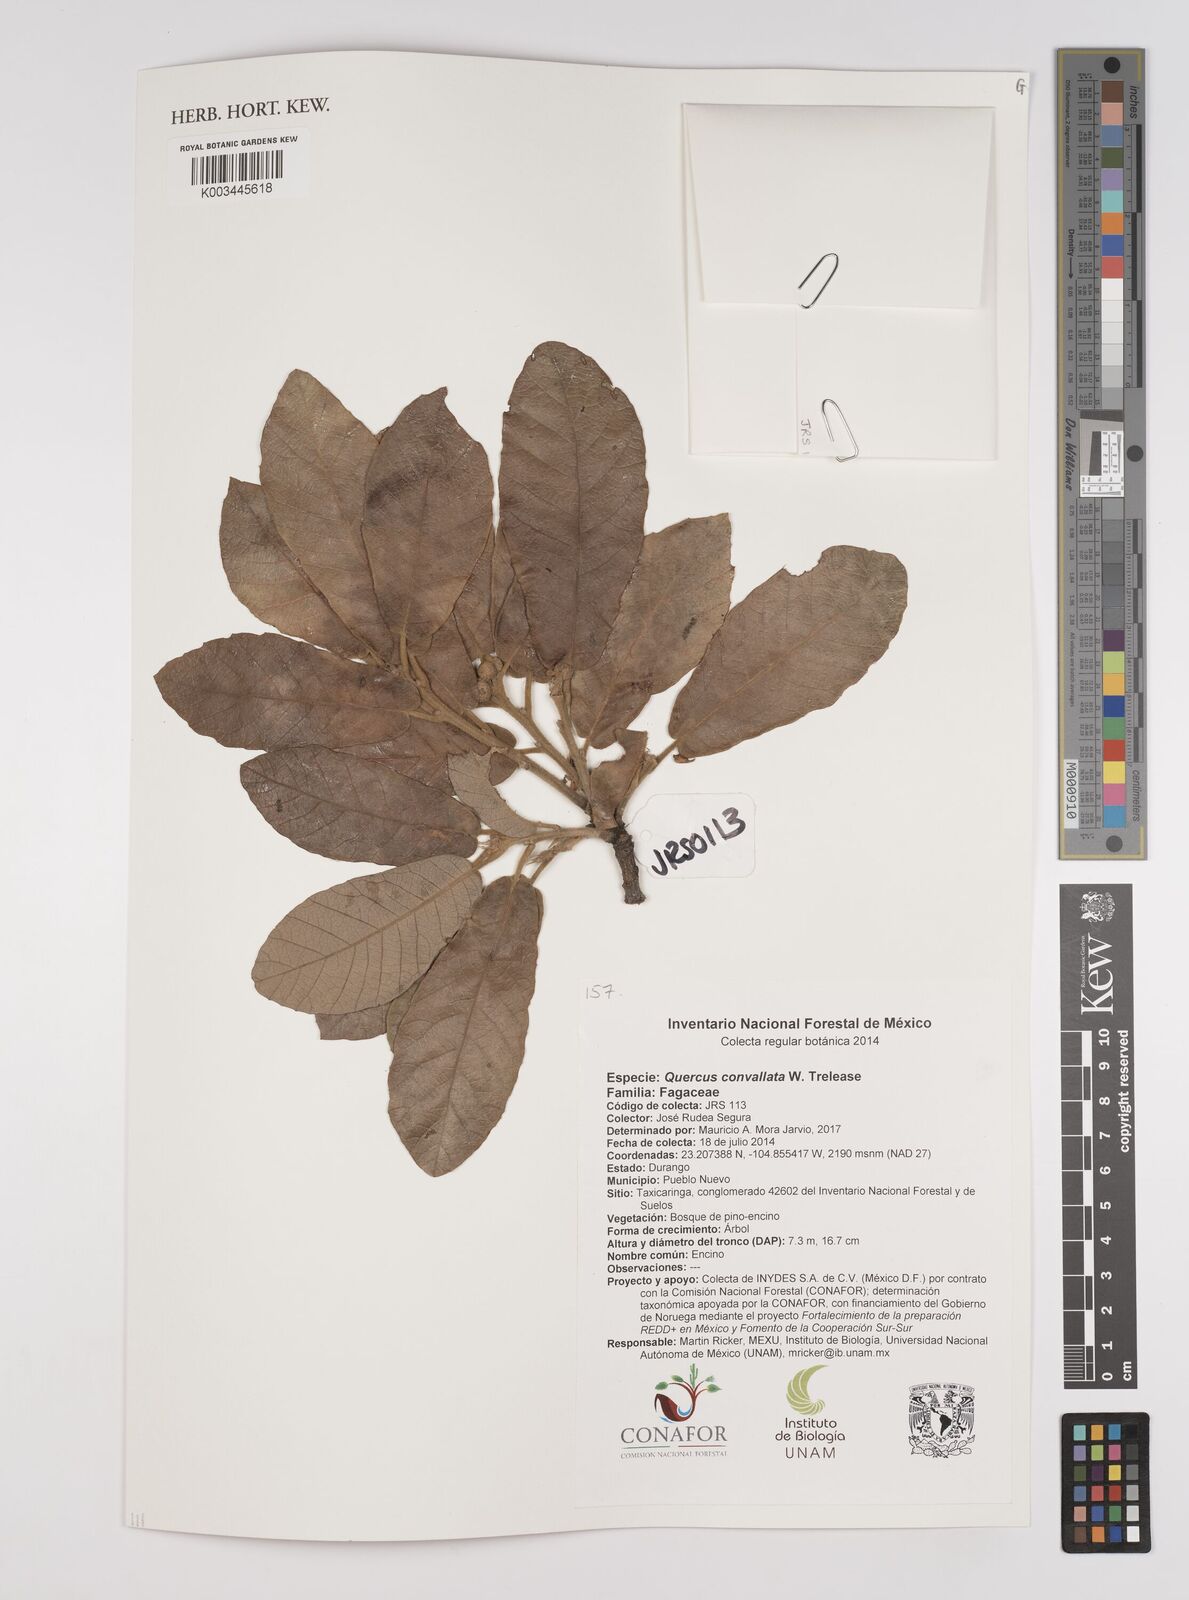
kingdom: Plantae
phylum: Tracheophyta
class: Magnoliopsida
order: Fagales
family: Fagaceae
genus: Quercus
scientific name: Quercus convallata
